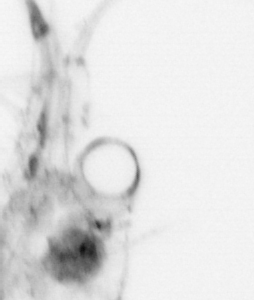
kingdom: Animalia
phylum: Arthropoda
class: Malacostraca
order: Decapoda
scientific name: Decapoda
